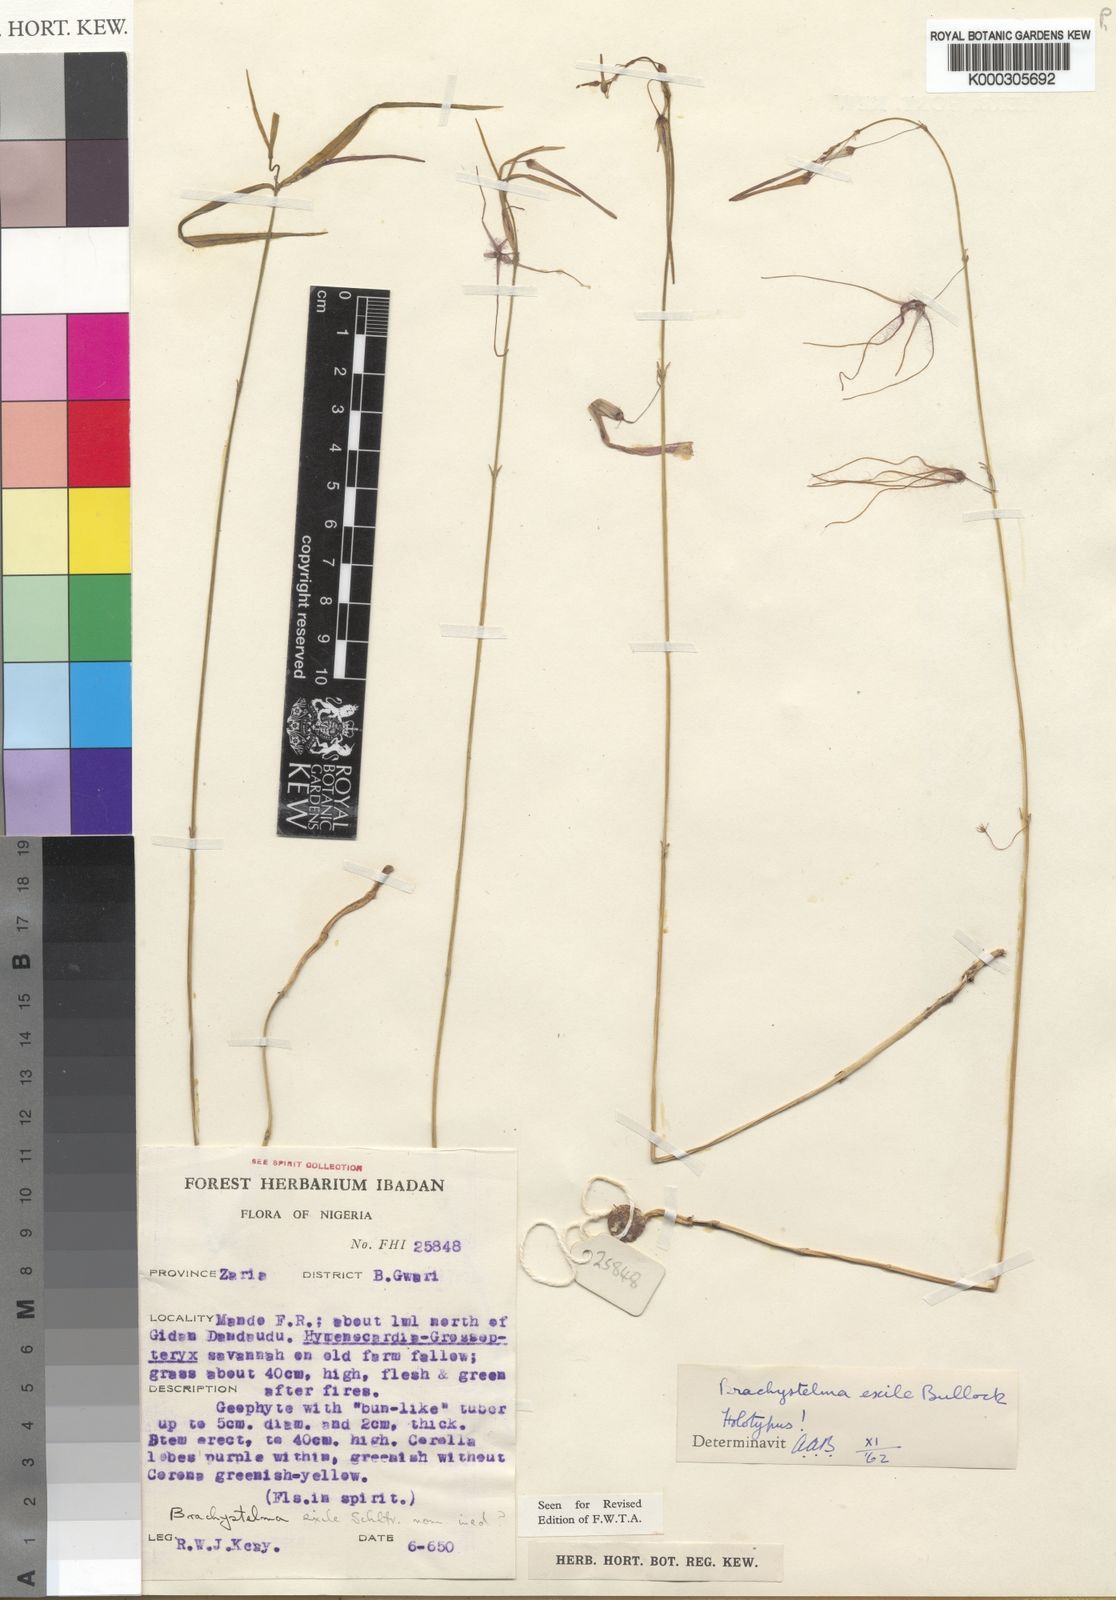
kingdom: Plantae
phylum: Tracheophyta
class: Magnoliopsida
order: Gentianales
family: Apocynaceae
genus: Ceropegia
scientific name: Ceropegia exilis
